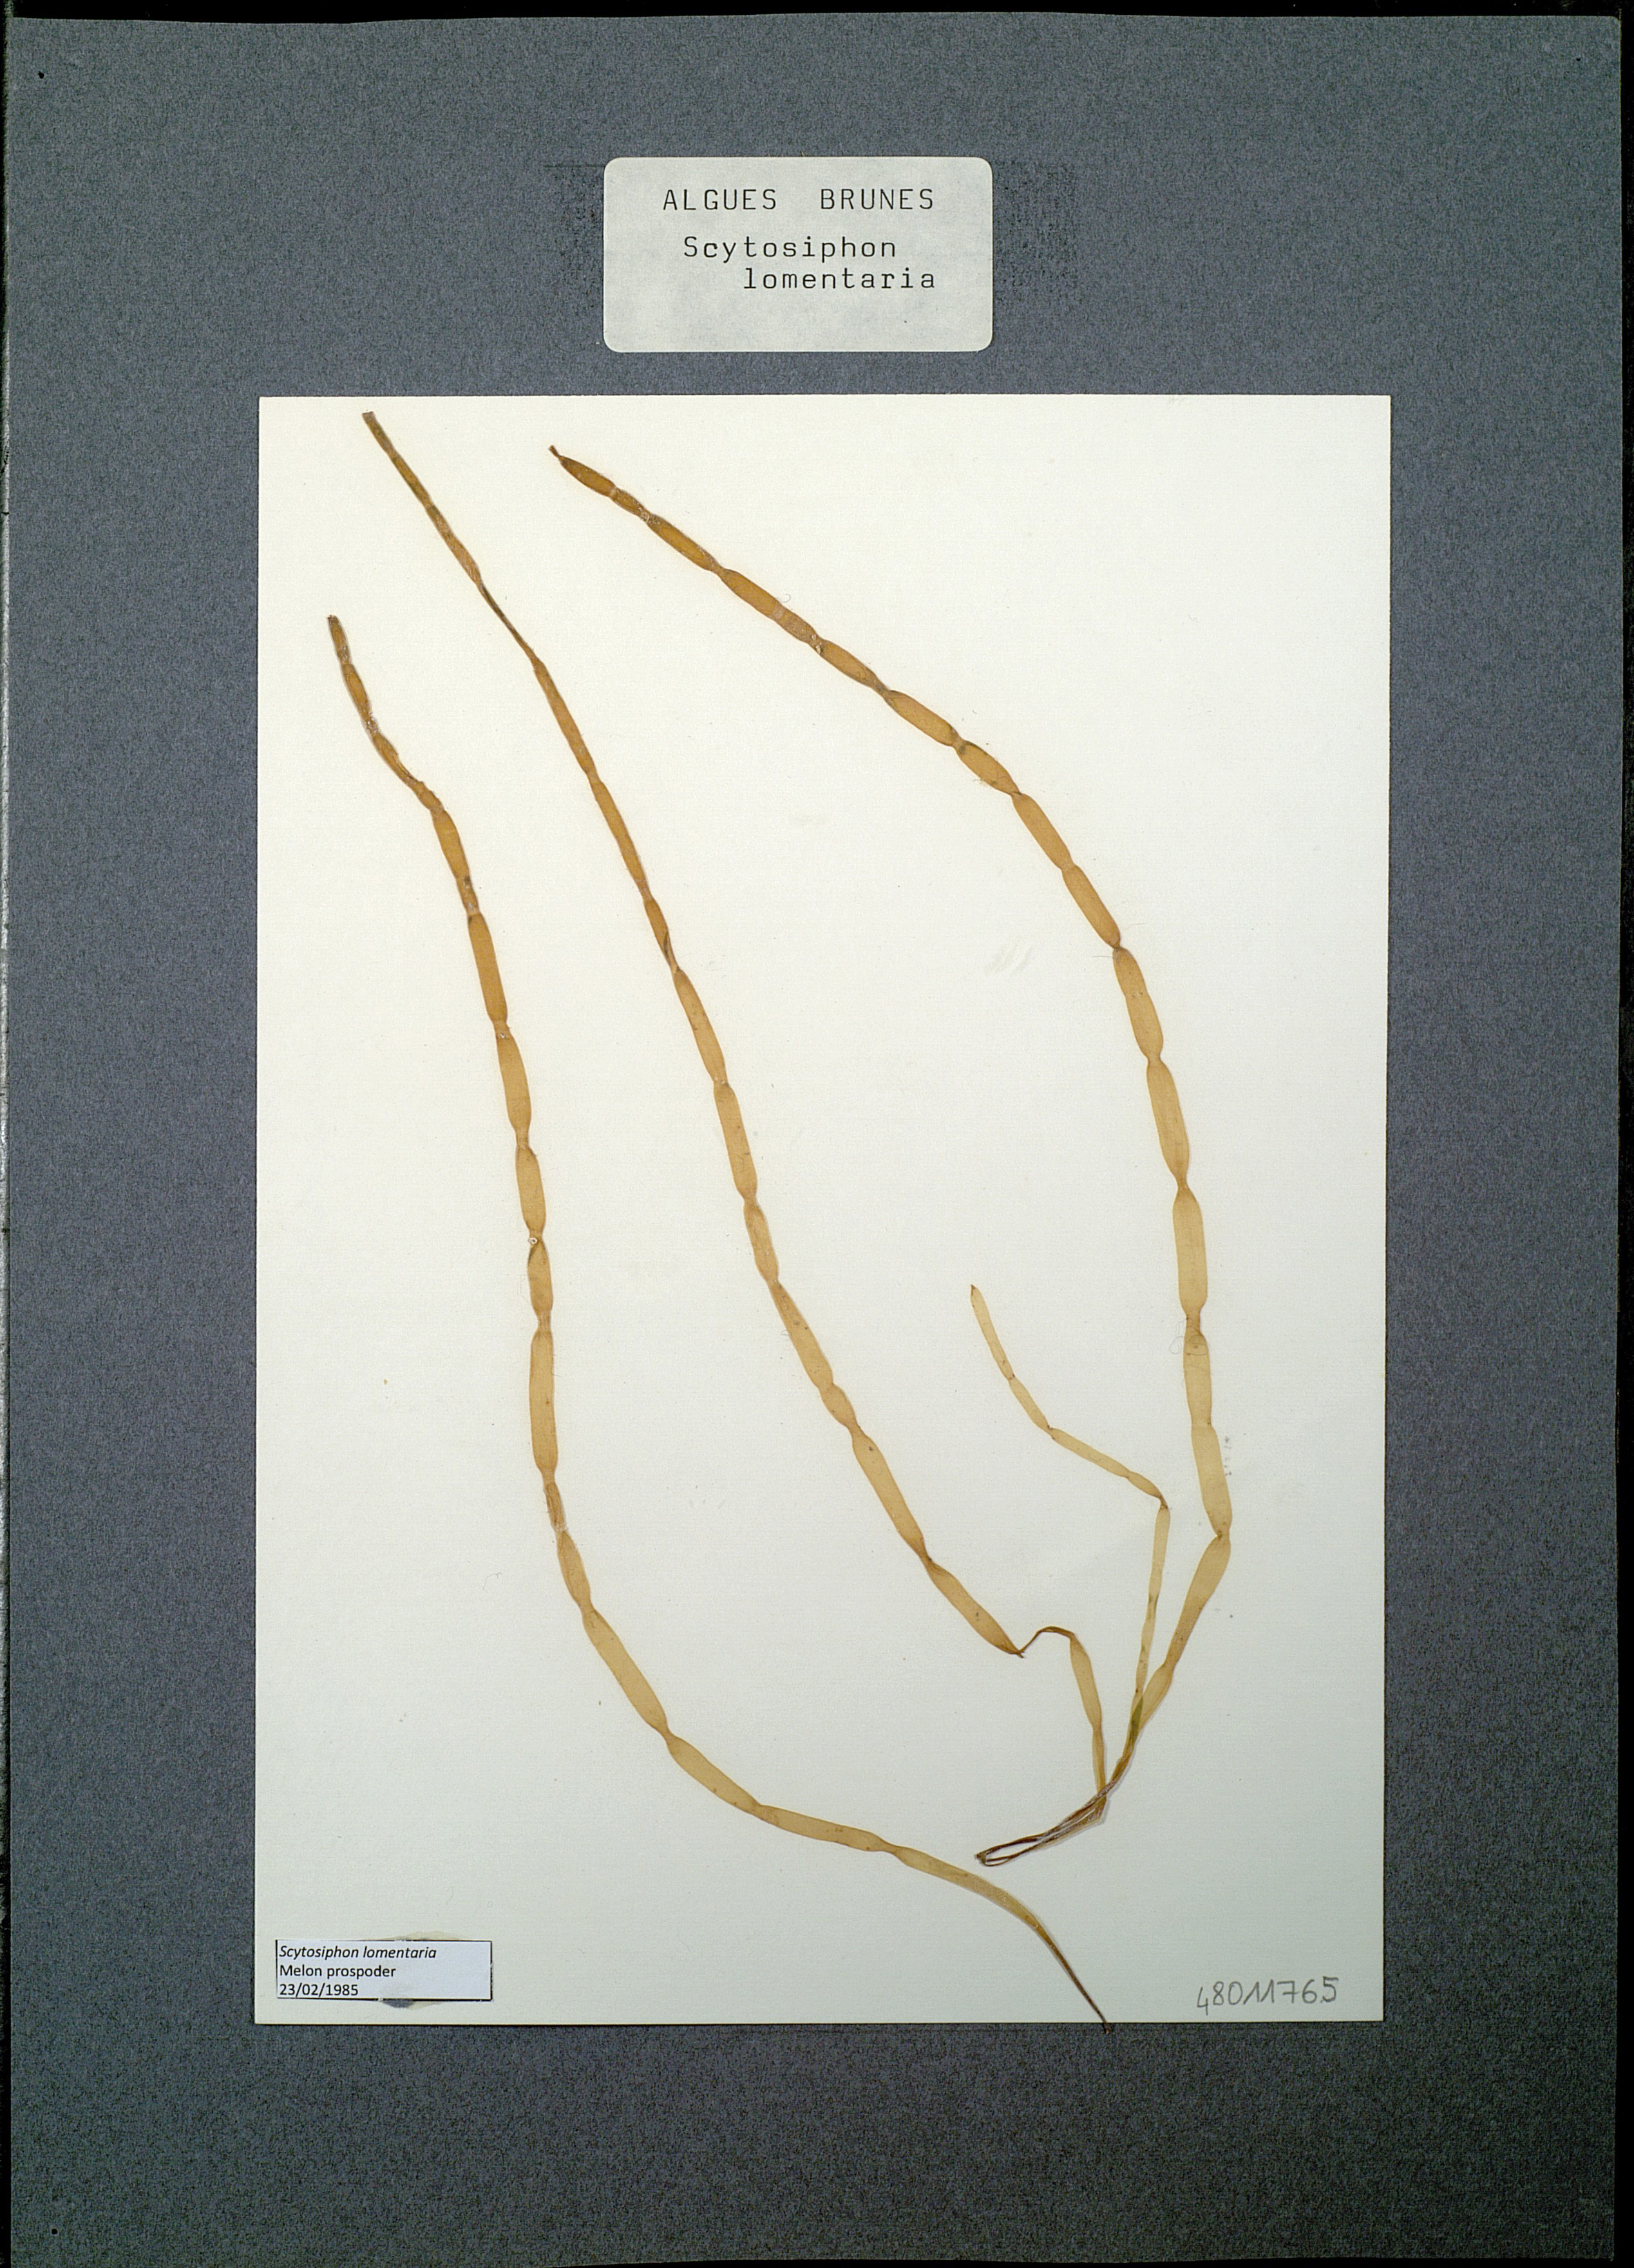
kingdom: Chromista
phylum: Ochrophyta
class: Phaeophyceae
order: Scytosiphonales
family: Scytosiphonaceae
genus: Scytosiphon
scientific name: Scytosiphon lomentaria
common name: Beanweed
